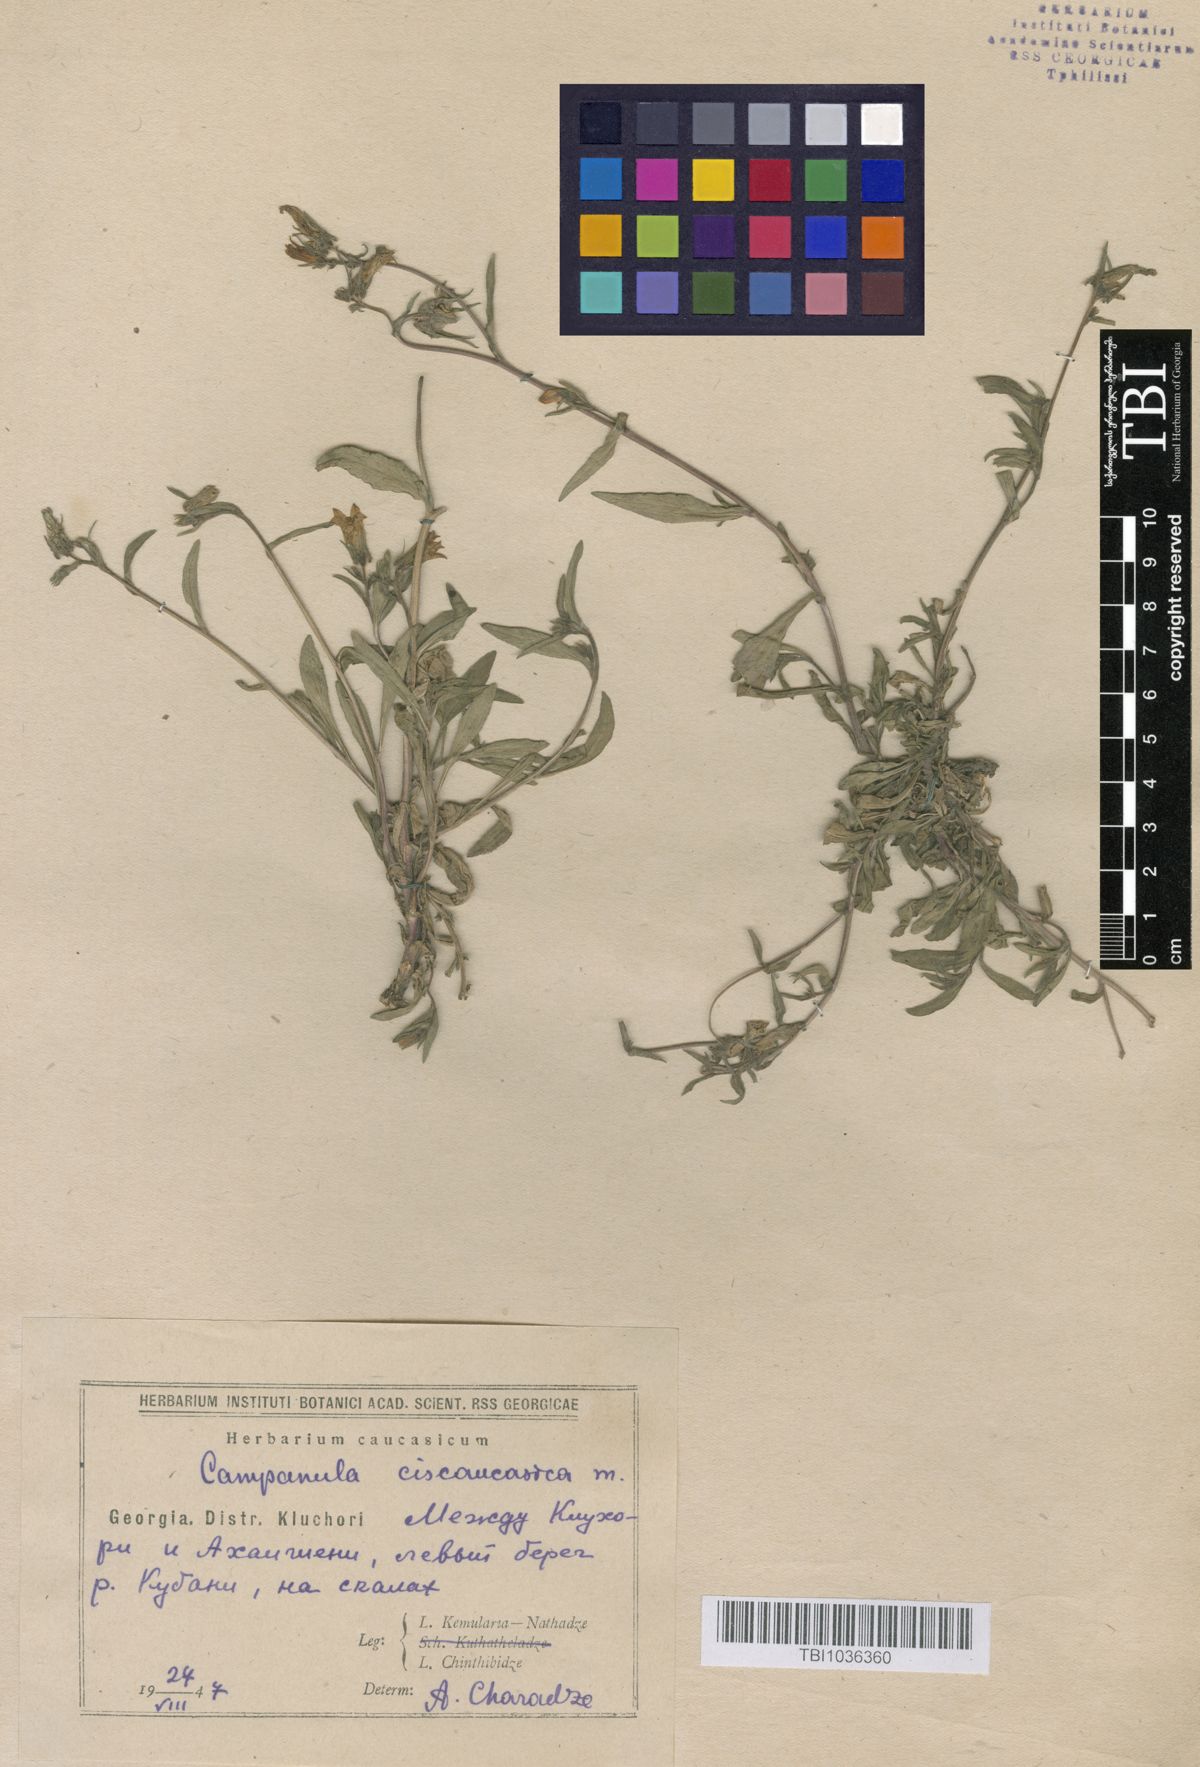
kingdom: Plantae
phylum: Tracheophyta
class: Magnoliopsida
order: Asterales
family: Campanulaceae
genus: Campanula
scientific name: Campanula sibirica
